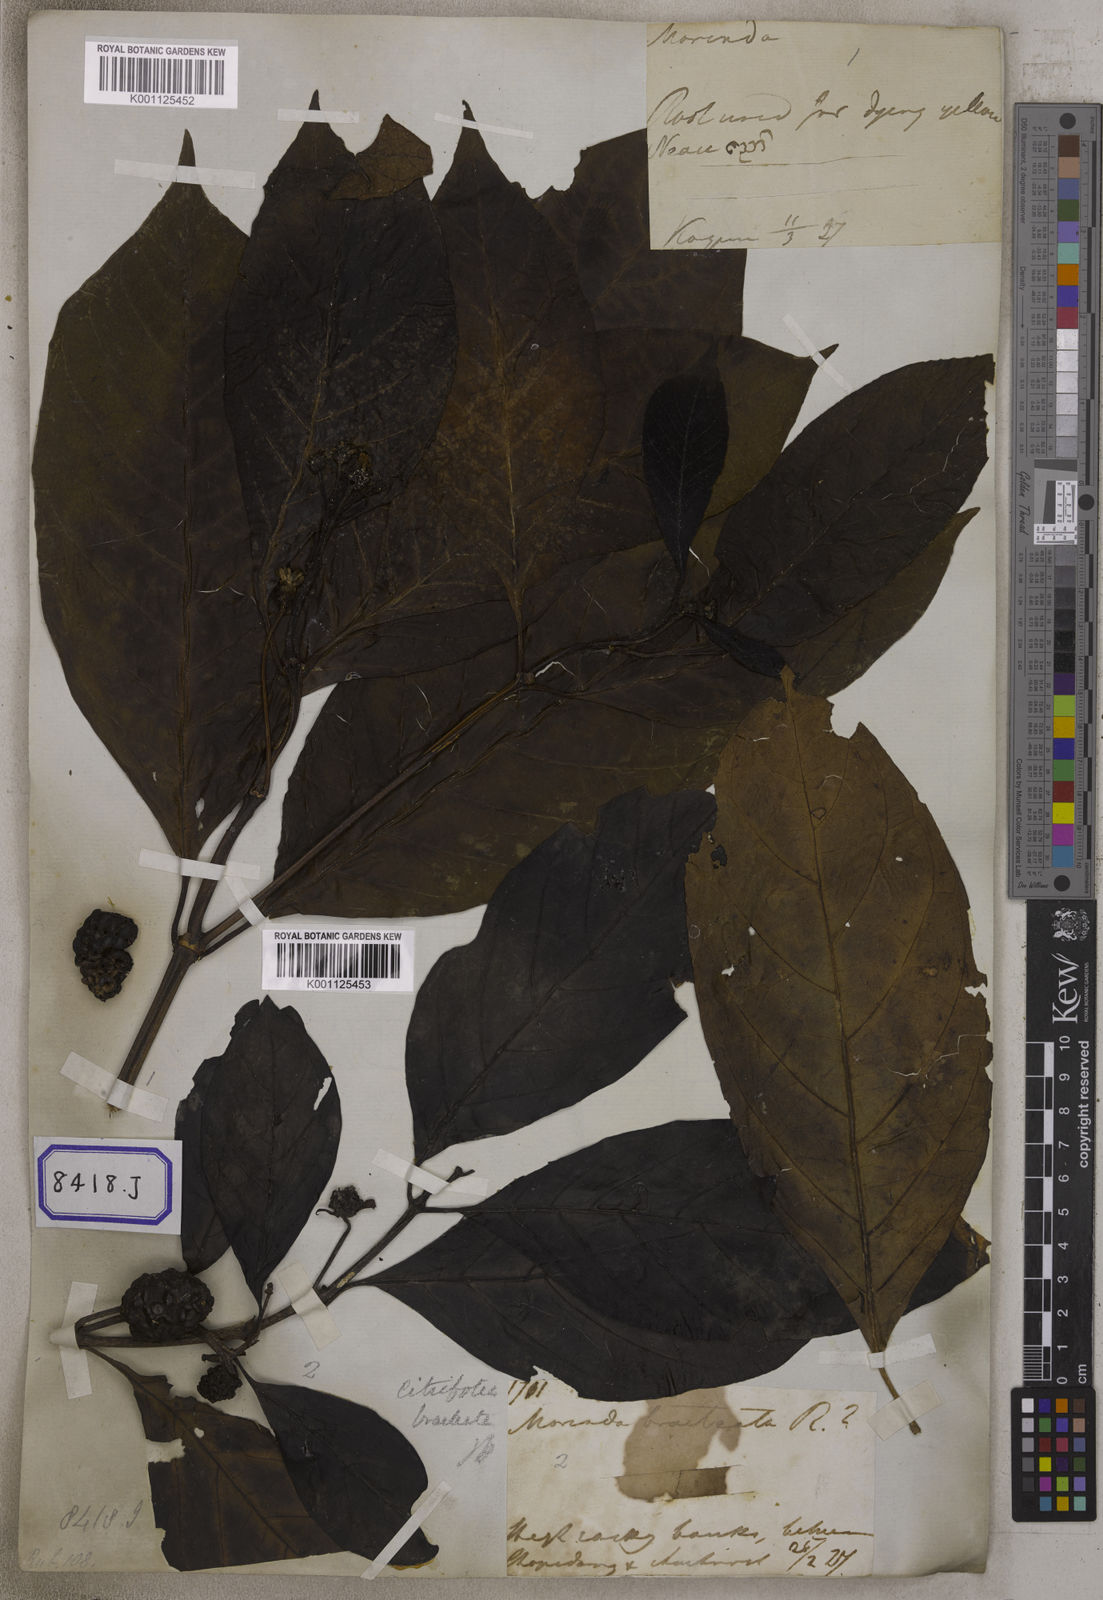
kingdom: Plantae
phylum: Tracheophyta
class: Magnoliopsida
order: Gentianales
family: Rubiaceae
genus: Morinda
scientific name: Morinda citrifolia
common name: Indian-mulberry
